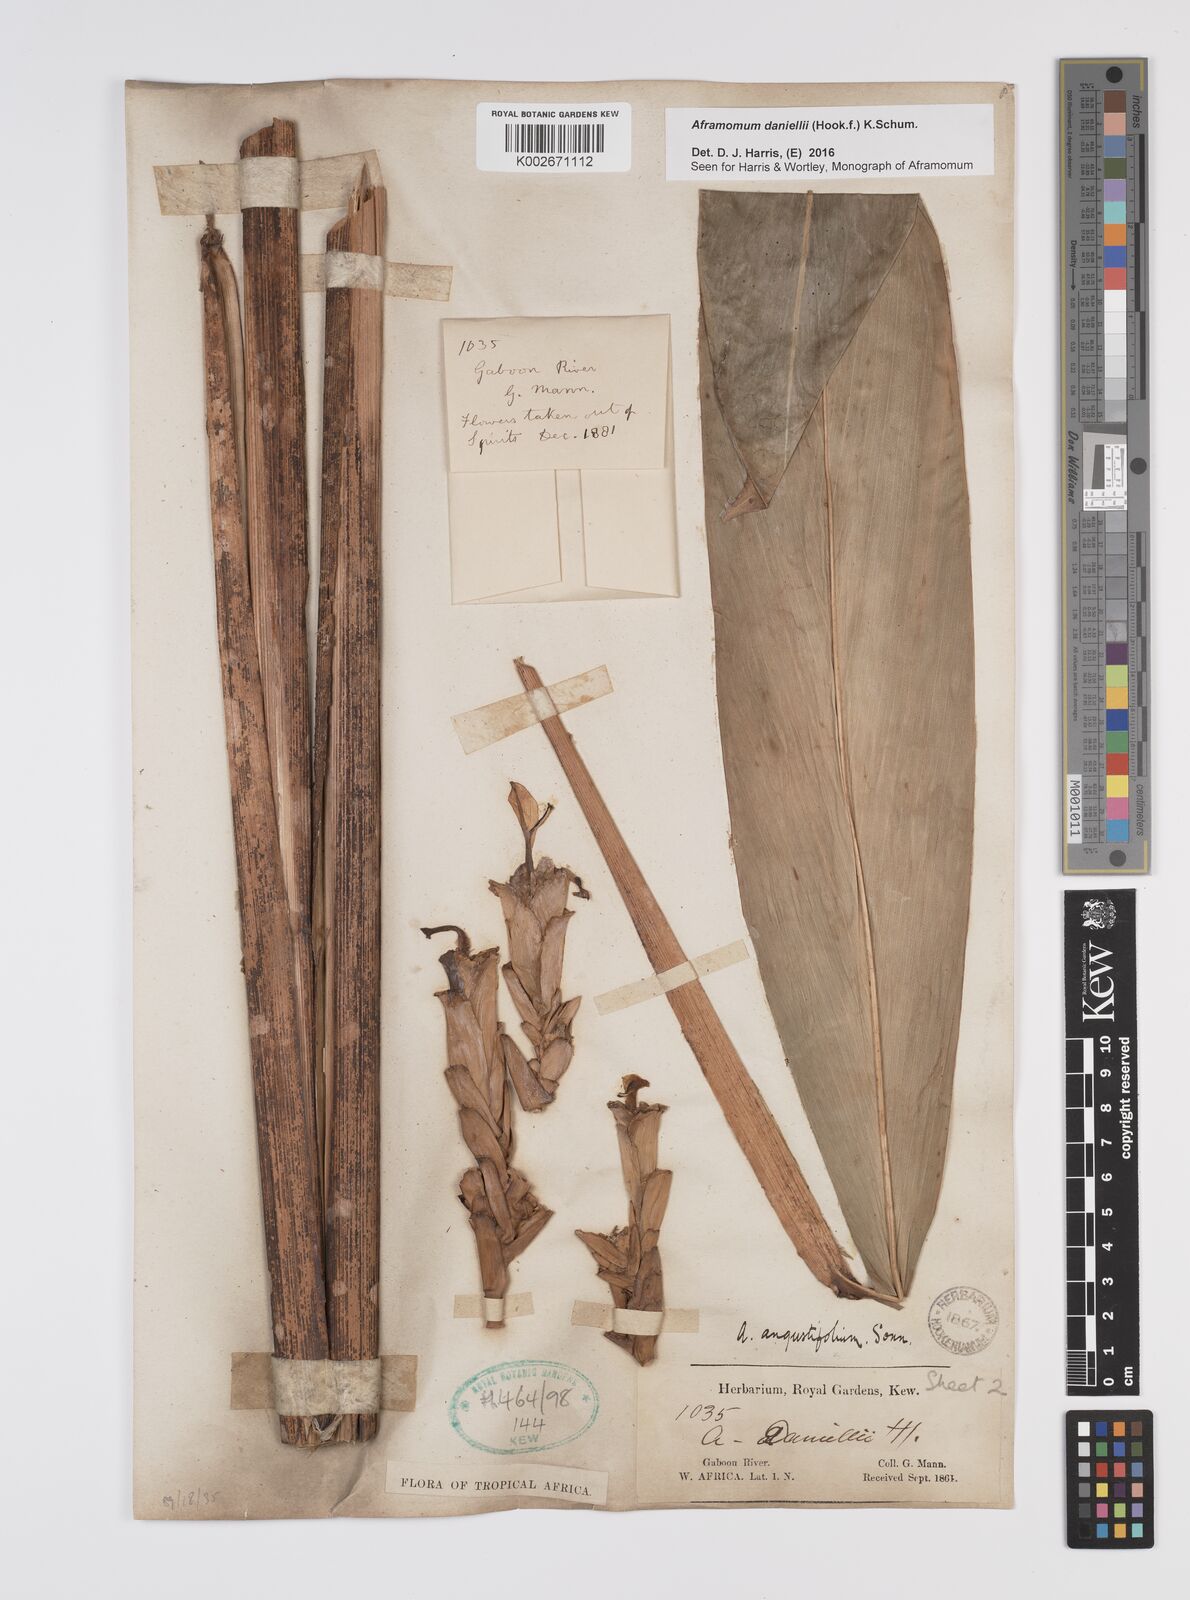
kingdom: Plantae
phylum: Tracheophyta
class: Liliopsida
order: Zingiberales
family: Zingiberaceae
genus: Aframomum
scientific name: Aframomum daniellii
